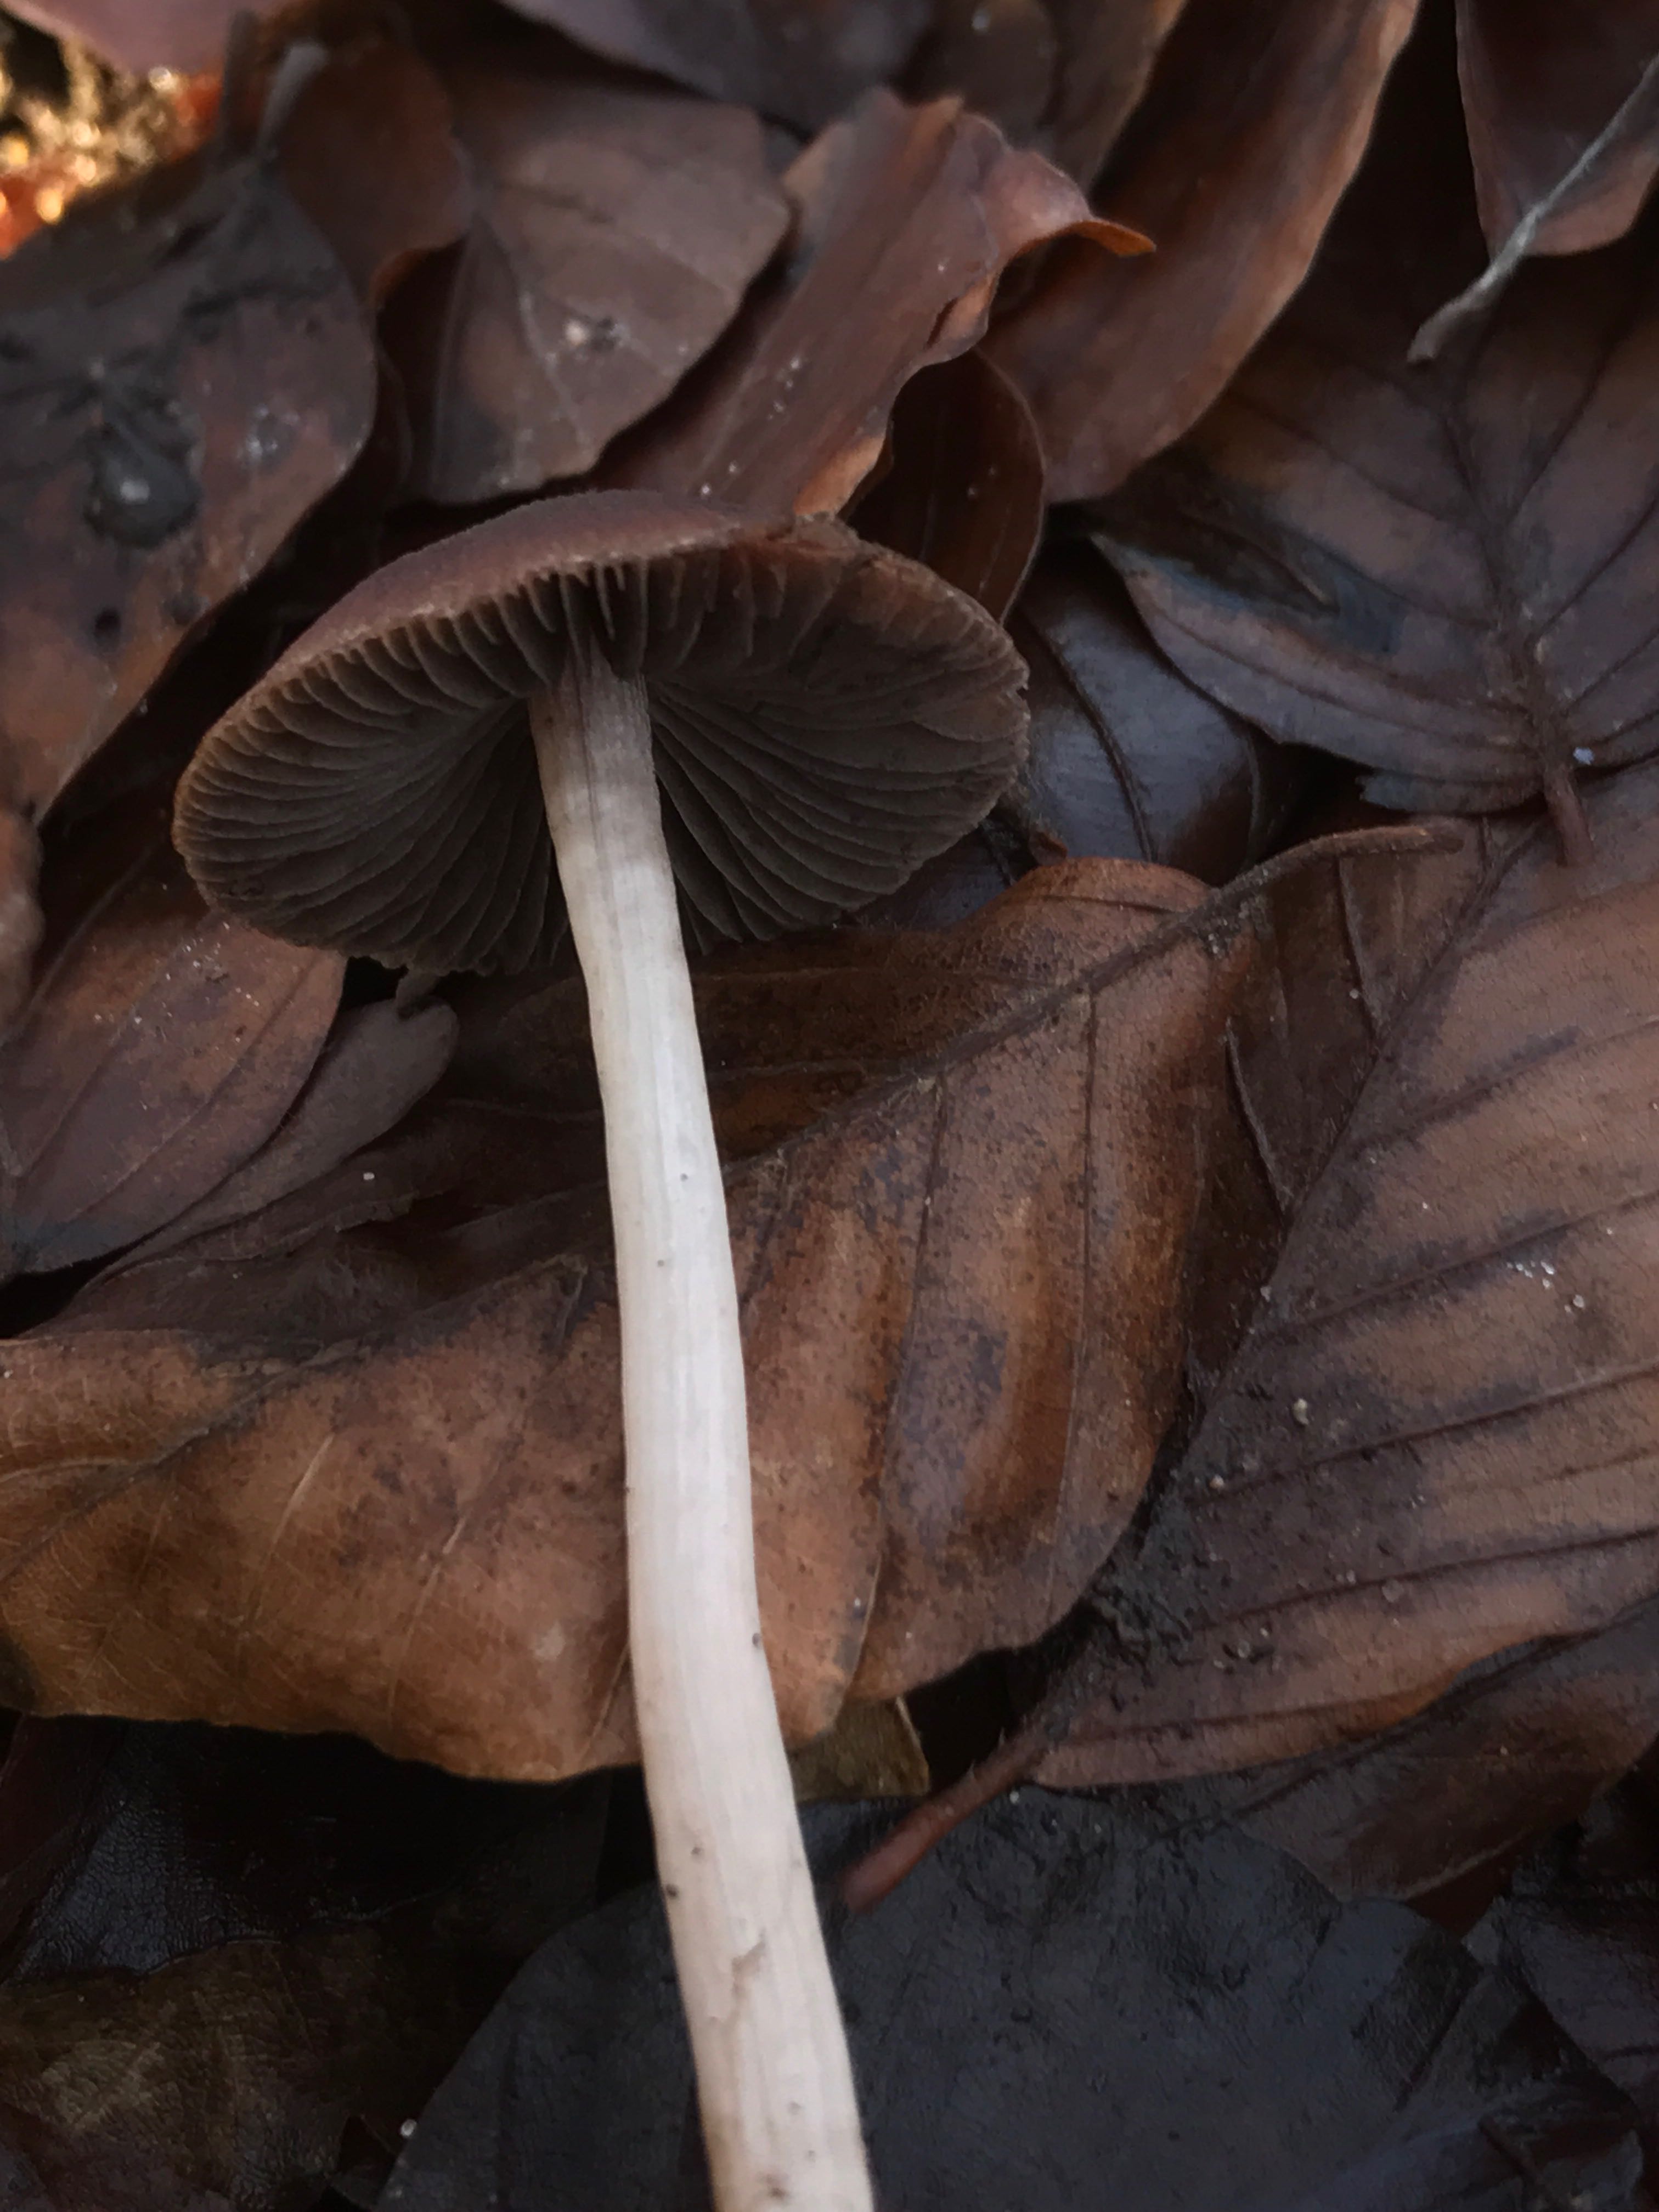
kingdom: Fungi
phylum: Basidiomycota
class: Agaricomycetes
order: Agaricales
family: Psathyrellaceae
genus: Psathyrella
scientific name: Psathyrella bipellis
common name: vinrød mørkhat
